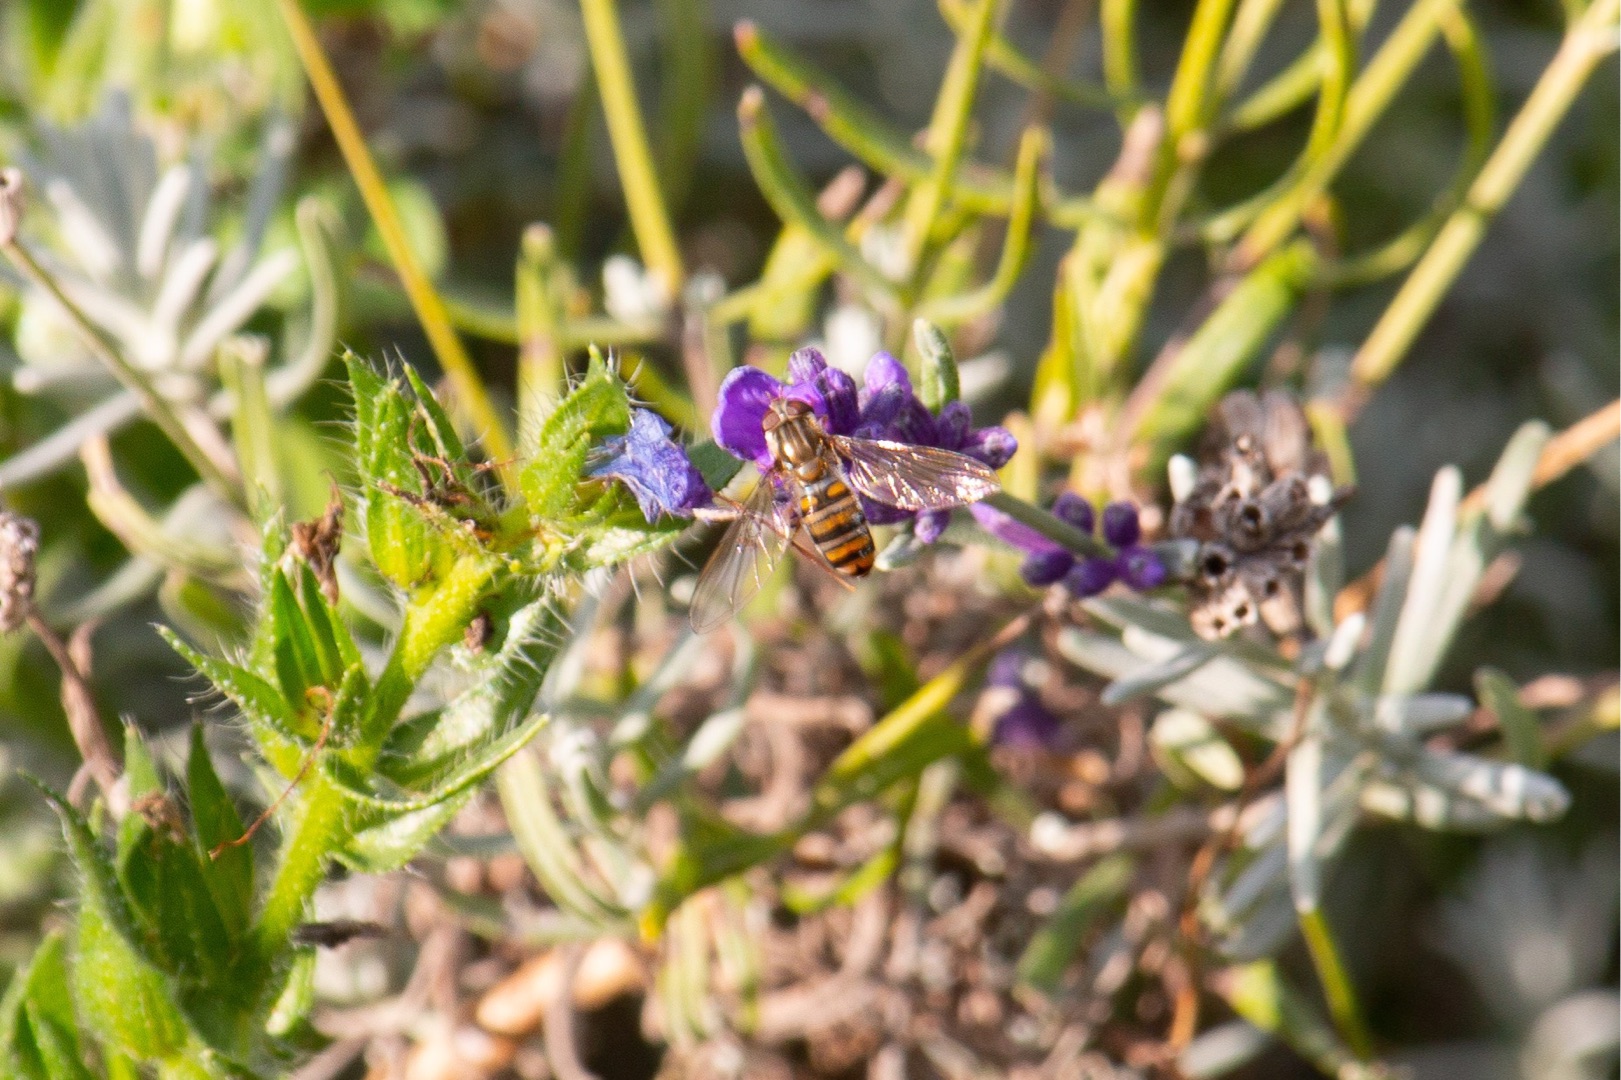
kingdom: Animalia
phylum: Arthropoda
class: Insecta
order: Diptera
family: Syrphidae
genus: Episyrphus
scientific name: Episyrphus balteatus
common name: Dobbeltbåndet svirreflue
